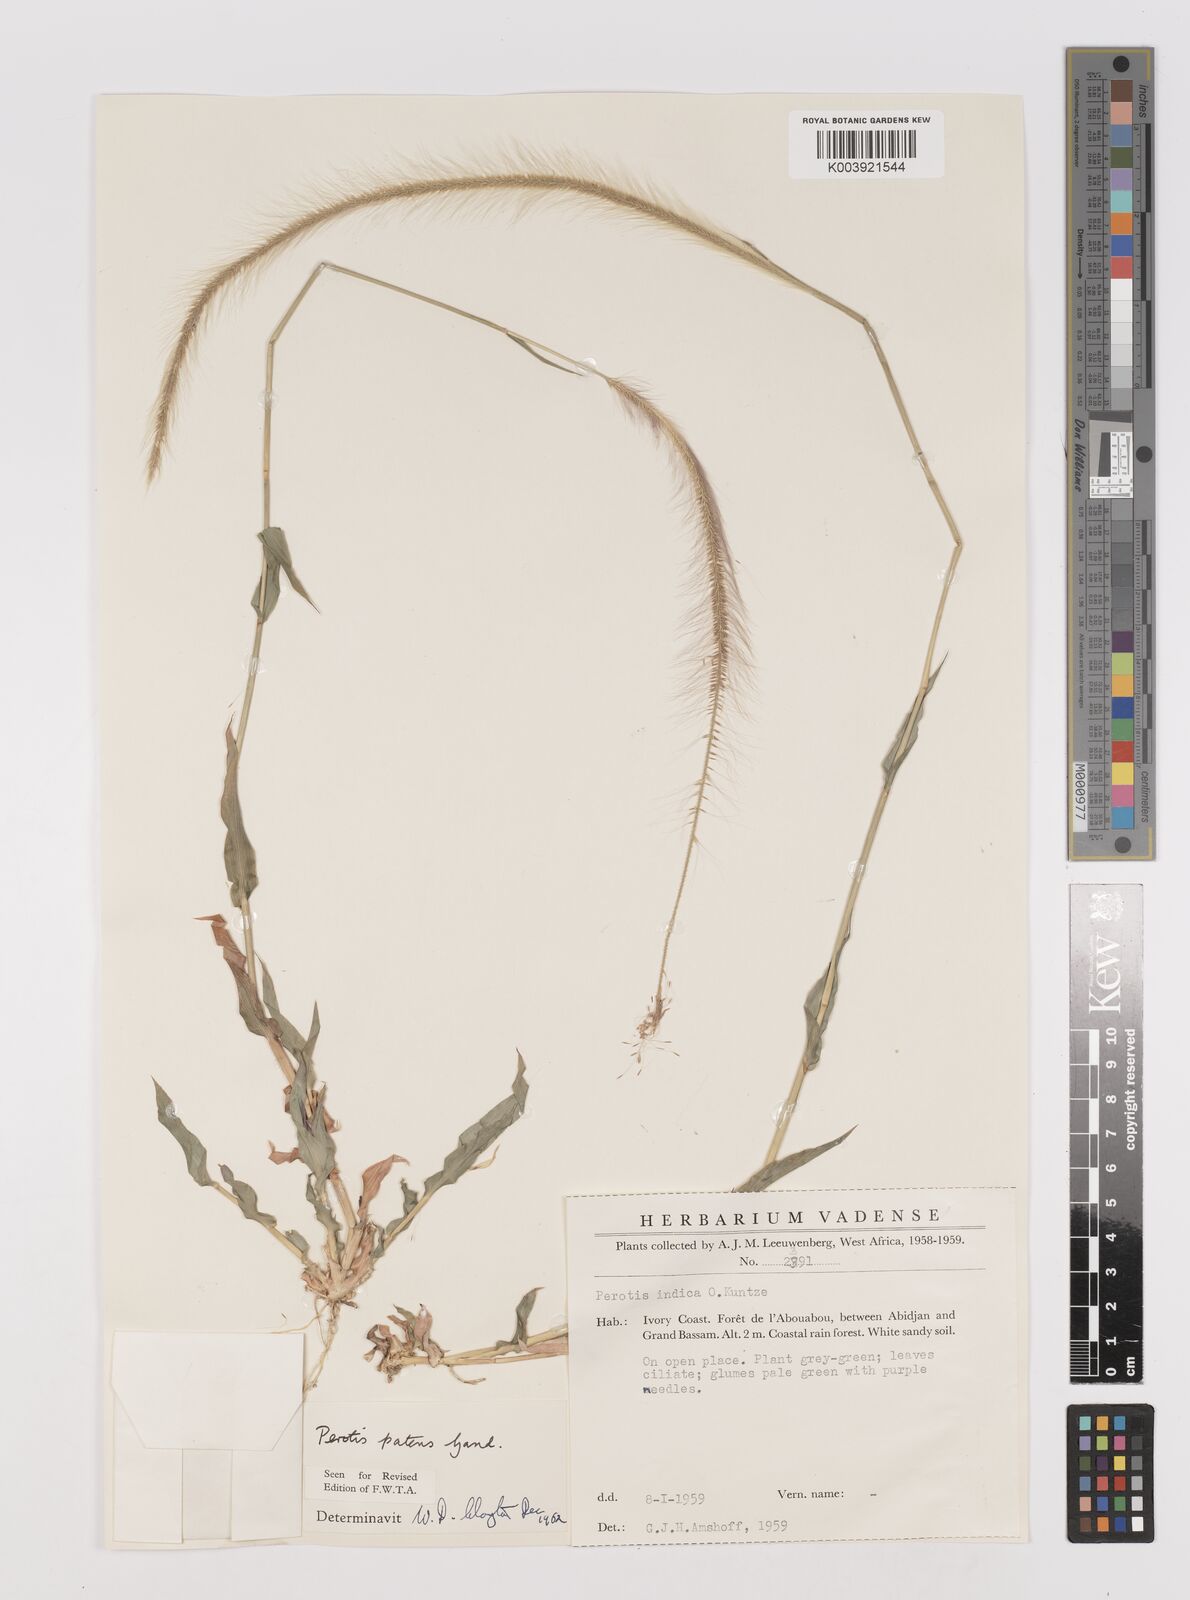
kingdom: Plantae
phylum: Tracheophyta
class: Liliopsida
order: Poales
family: Poaceae
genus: Perotis
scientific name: Perotis patens
